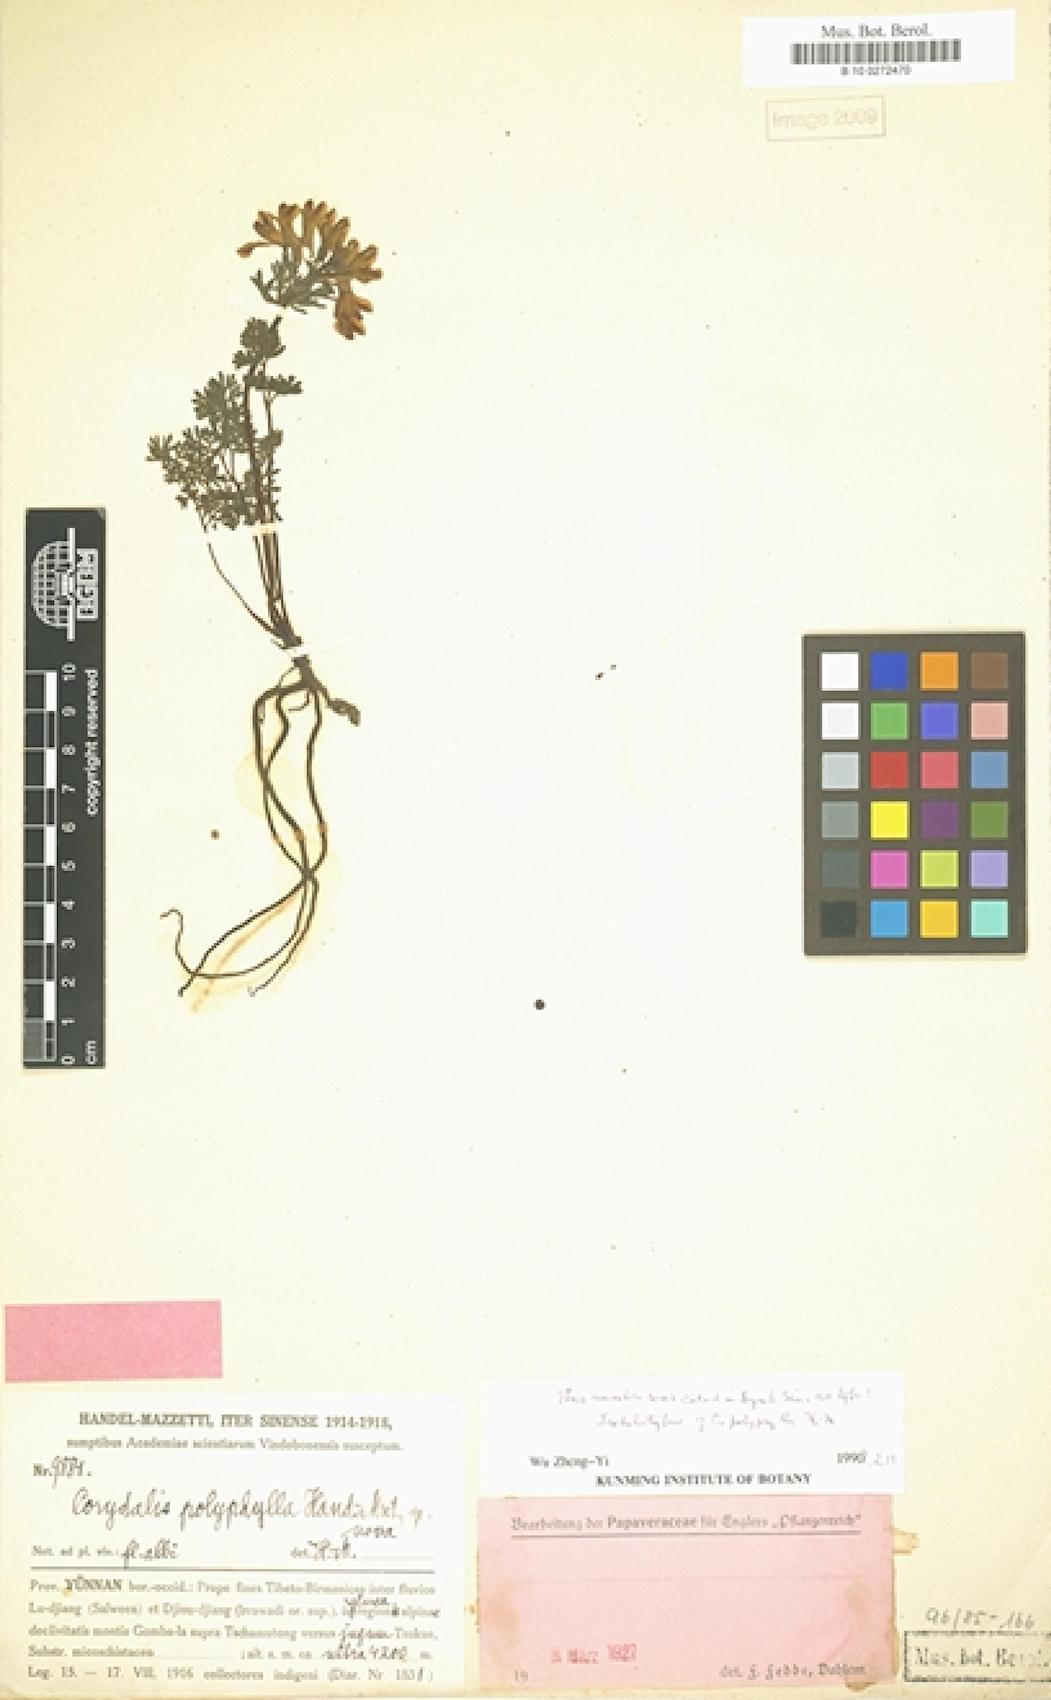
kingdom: Plantae
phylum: Tracheophyta
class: Magnoliopsida
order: Ranunculales
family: Papaveraceae
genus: Corydalis
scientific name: Corydalis polyphylla
